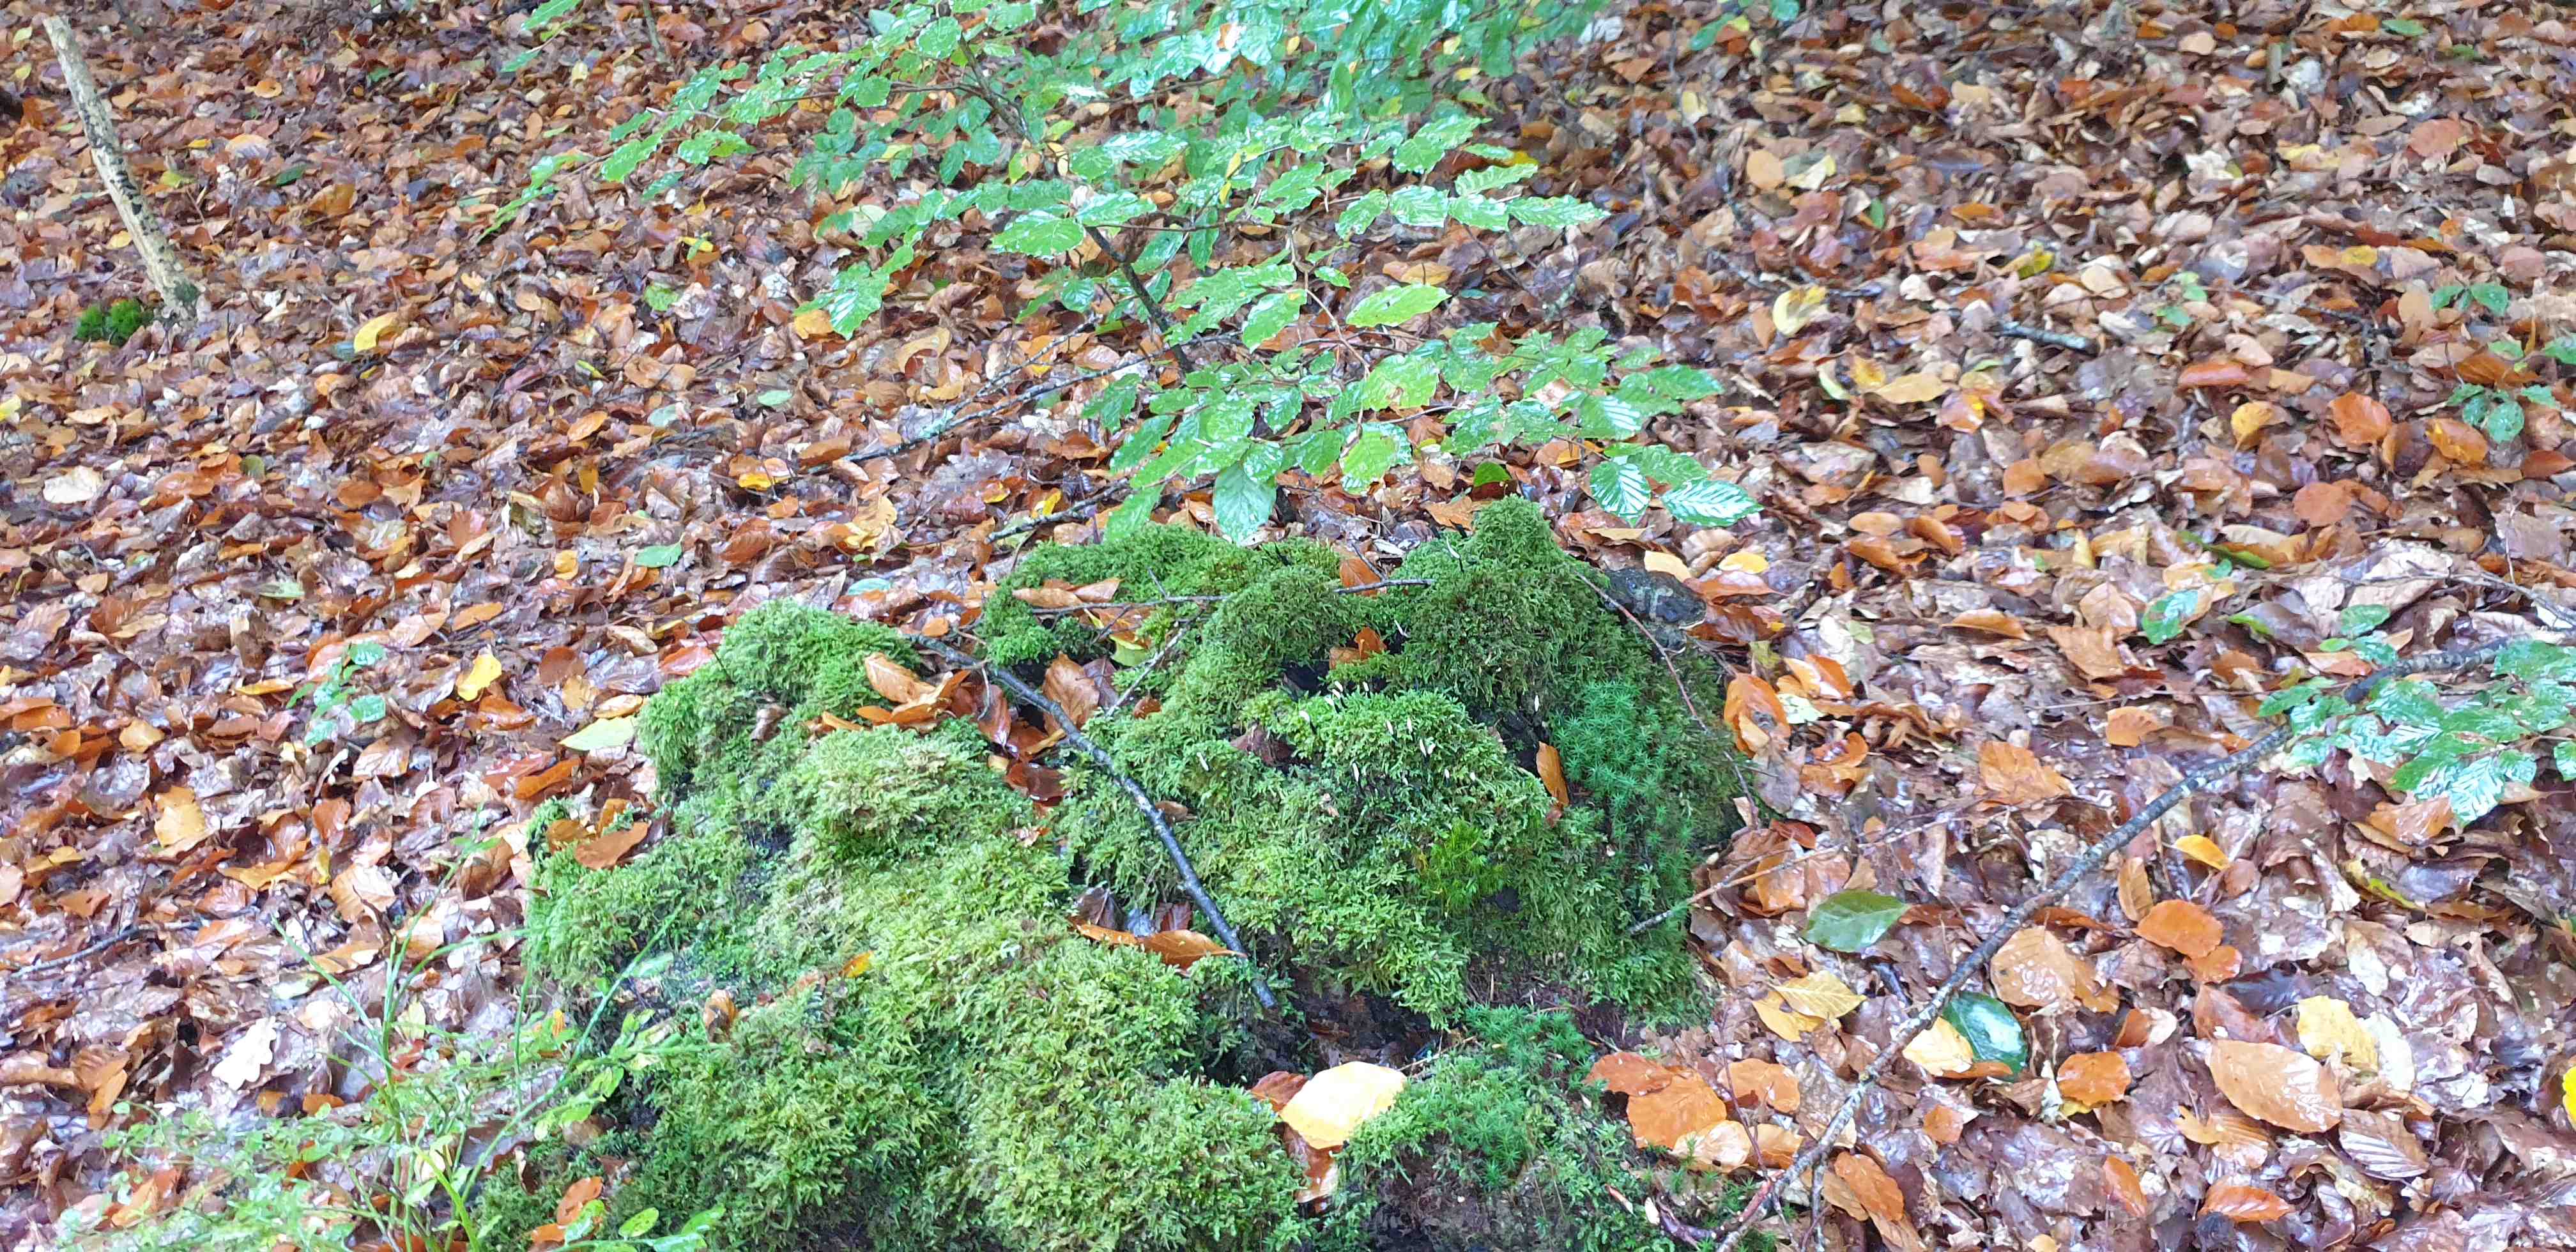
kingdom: Fungi
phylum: Ascomycota
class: Sordariomycetes
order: Xylariales
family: Xylariaceae
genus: Xylaria
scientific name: Xylaria hypoxylon
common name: grenet stødsvamp
